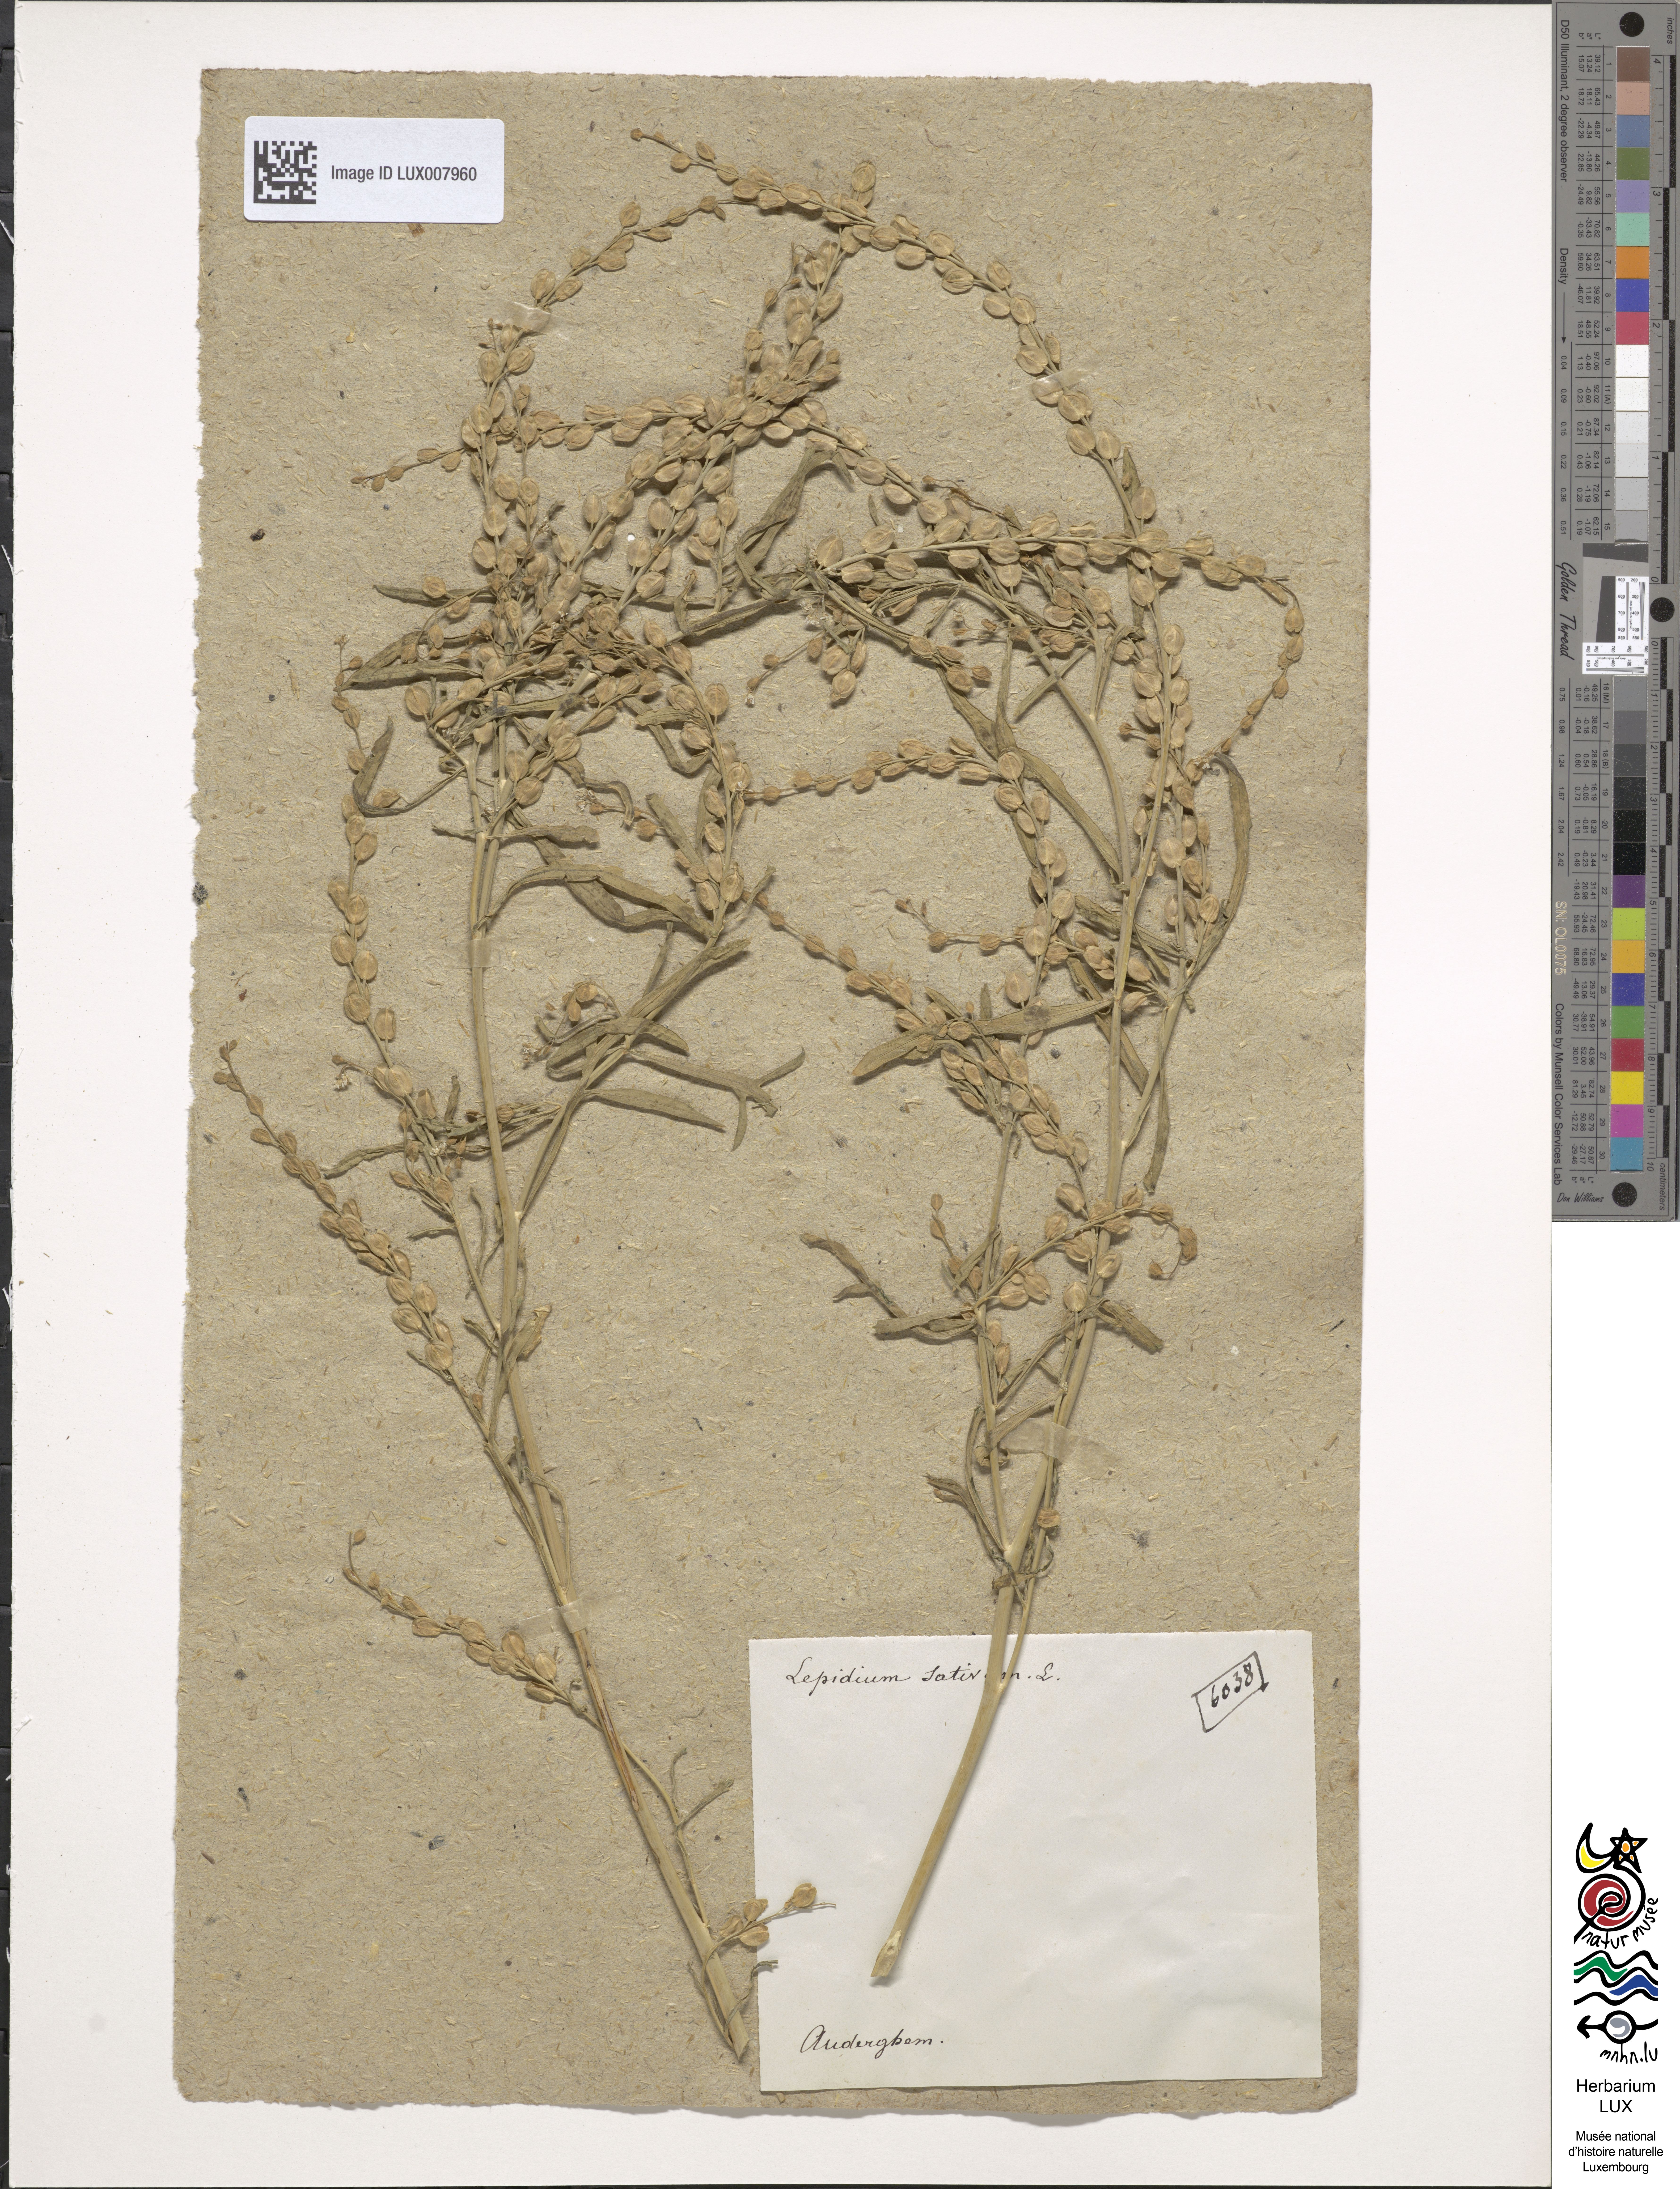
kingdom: Plantae
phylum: Tracheophyta
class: Magnoliopsida
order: Brassicales
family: Brassicaceae
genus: Lepidium
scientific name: Lepidium sativum
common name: Garden cress
